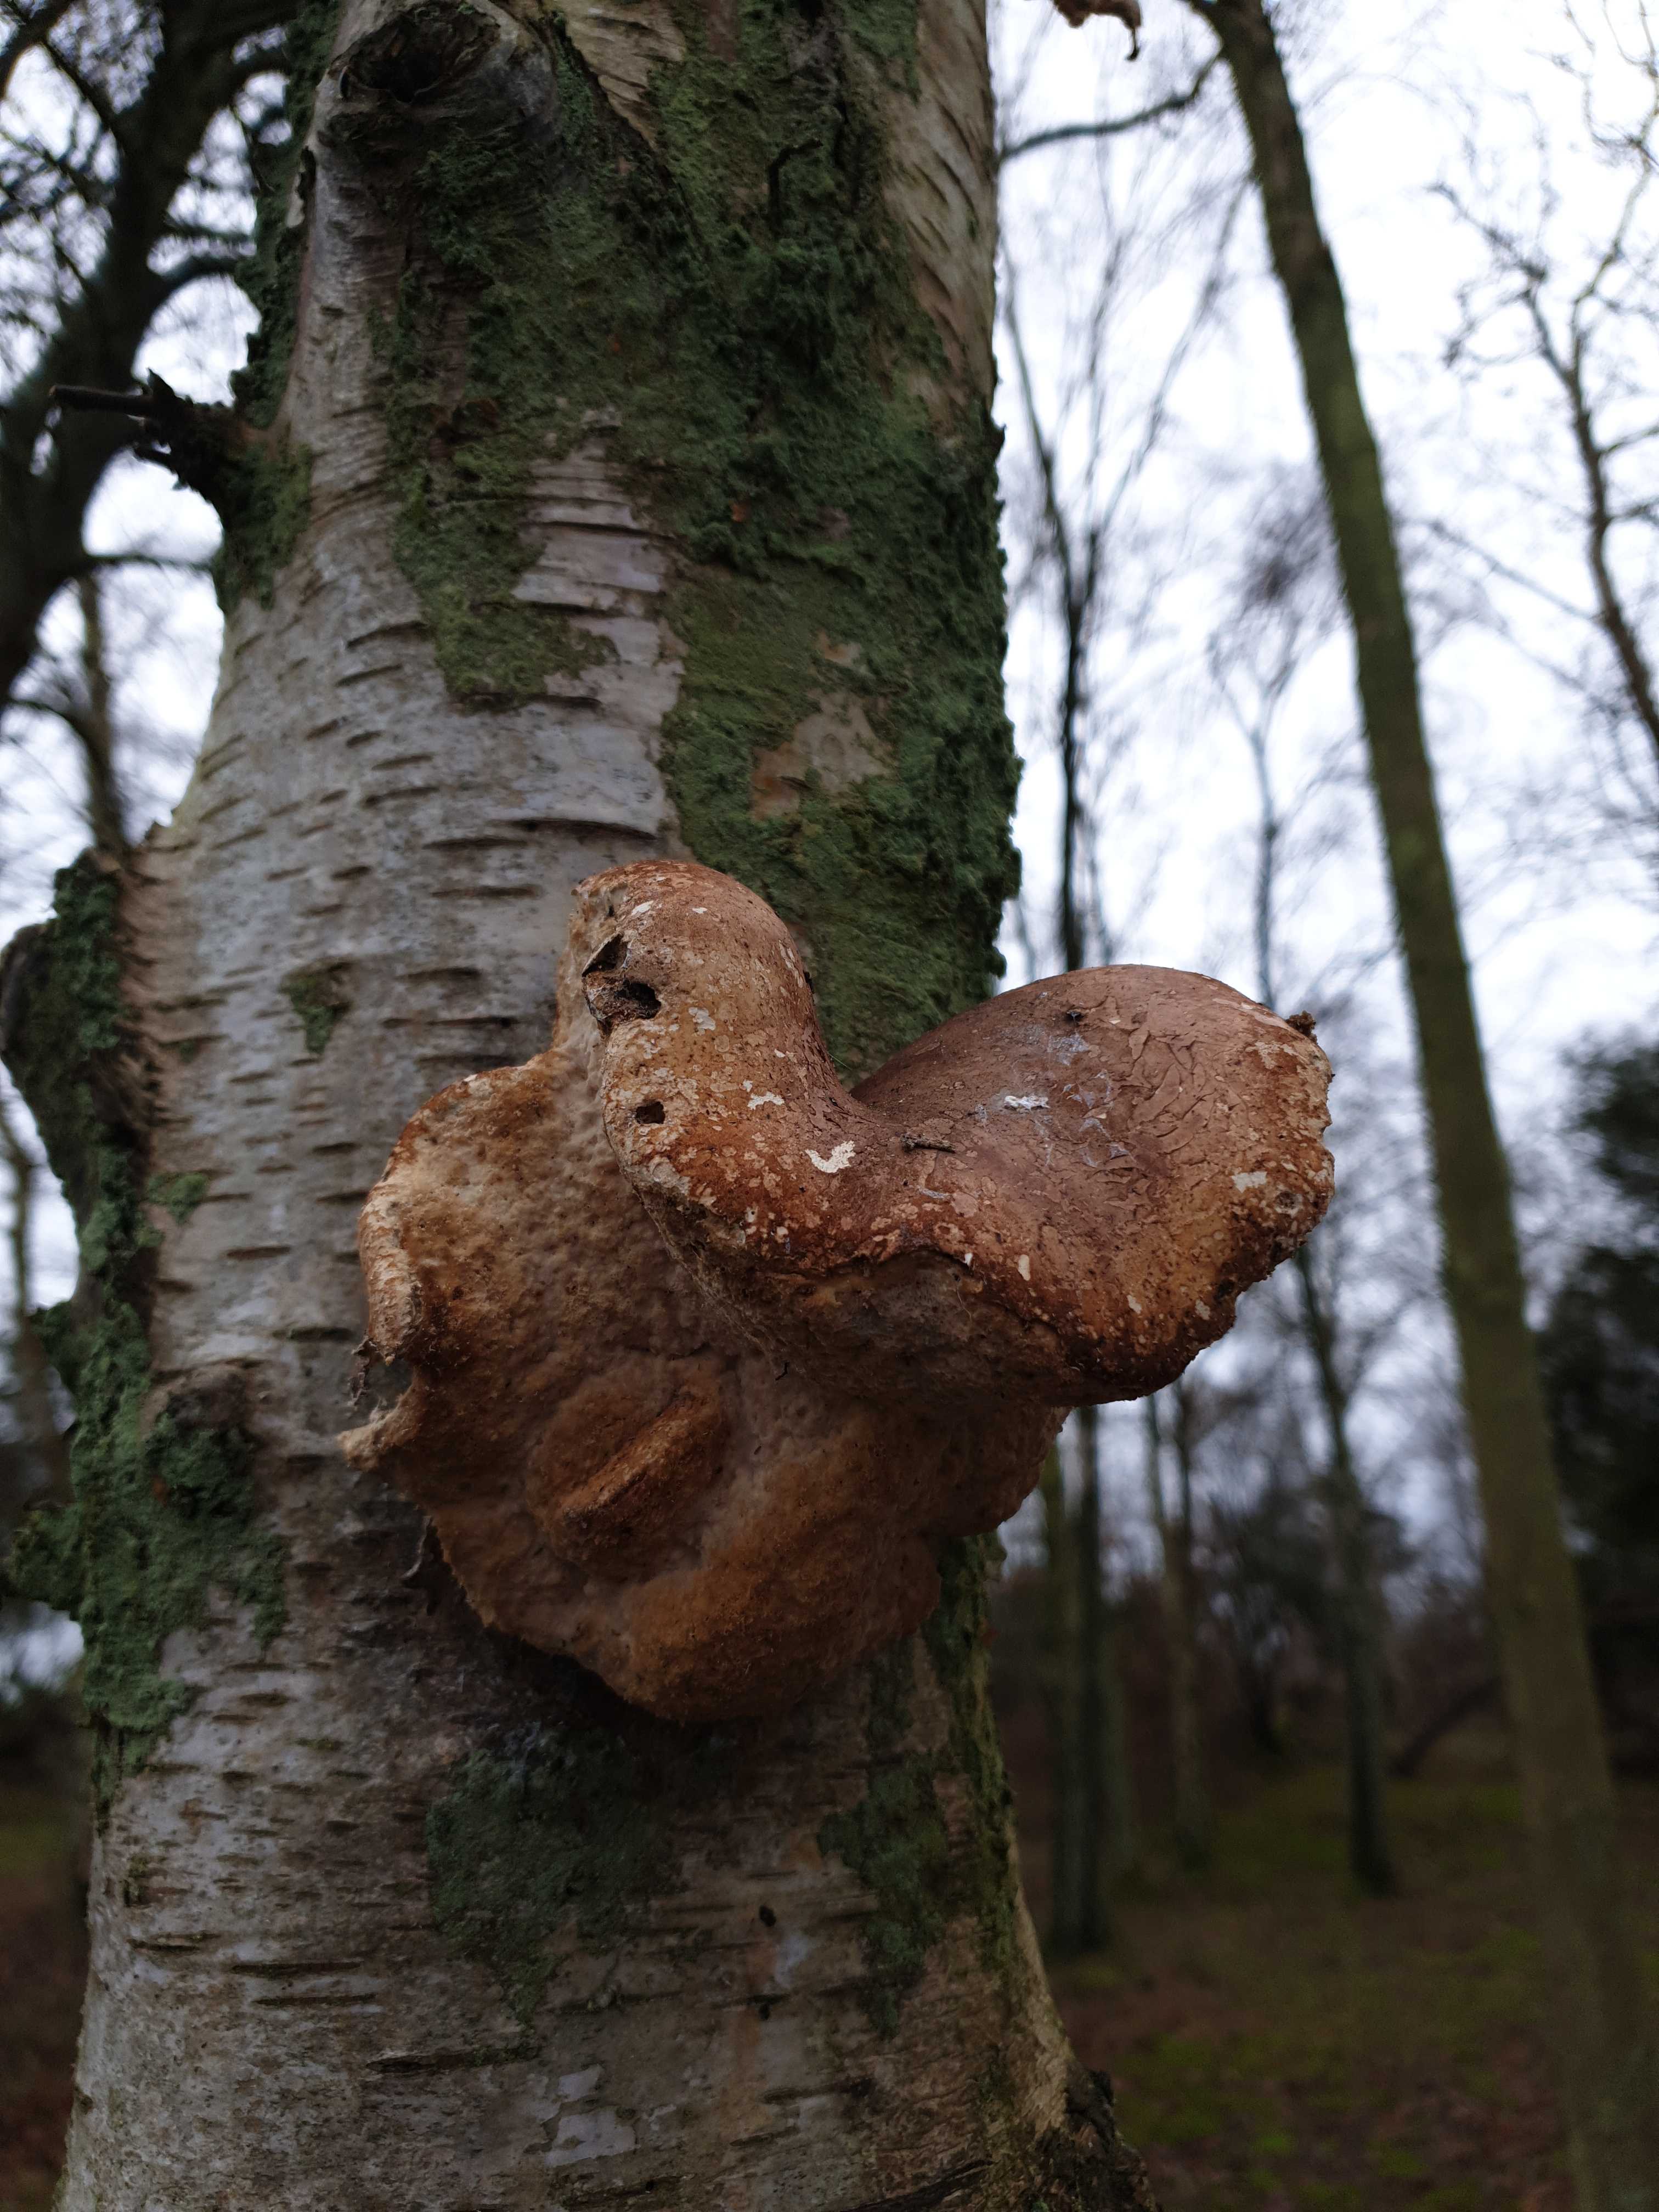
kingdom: Fungi
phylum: Basidiomycota
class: Agaricomycetes
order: Polyporales
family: Fomitopsidaceae
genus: Fomitopsis
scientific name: Fomitopsis betulina
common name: birkeporesvamp
